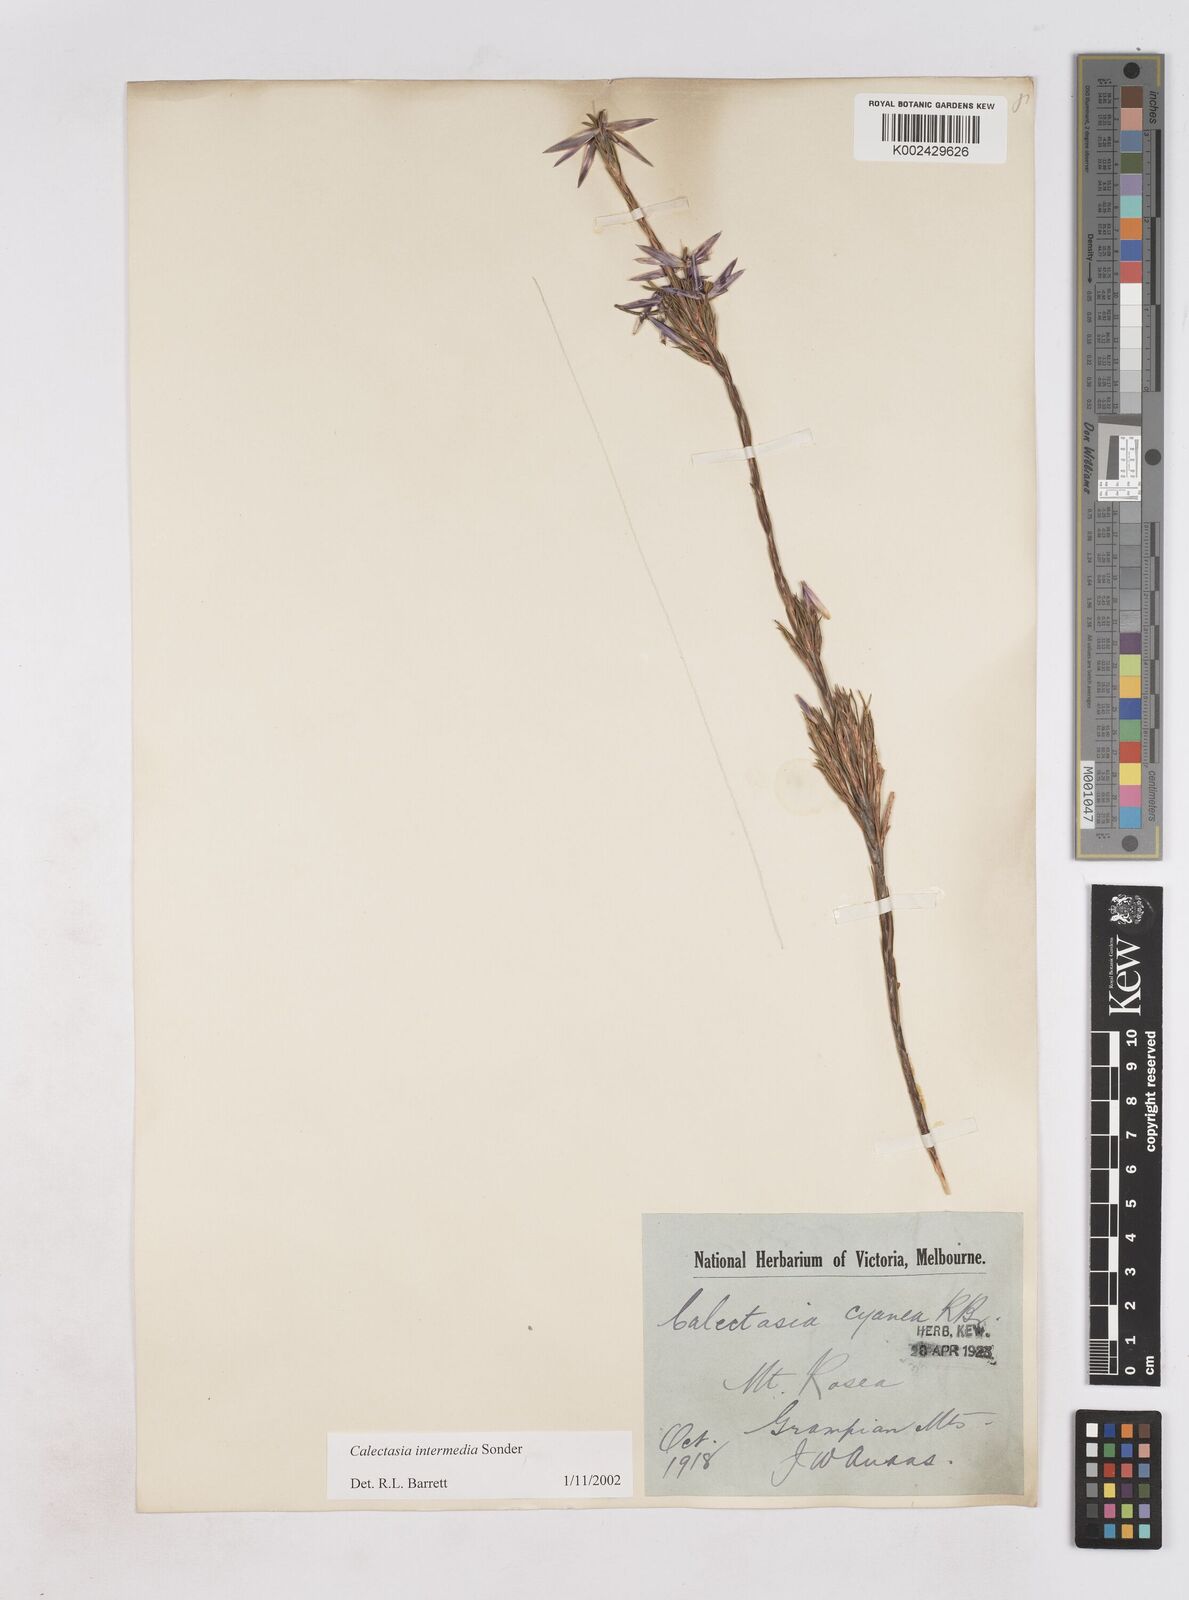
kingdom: Plantae
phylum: Tracheophyta
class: Liliopsida
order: Arecales
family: Dasypogonaceae
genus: Calectasia
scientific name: Calectasia intermedia
